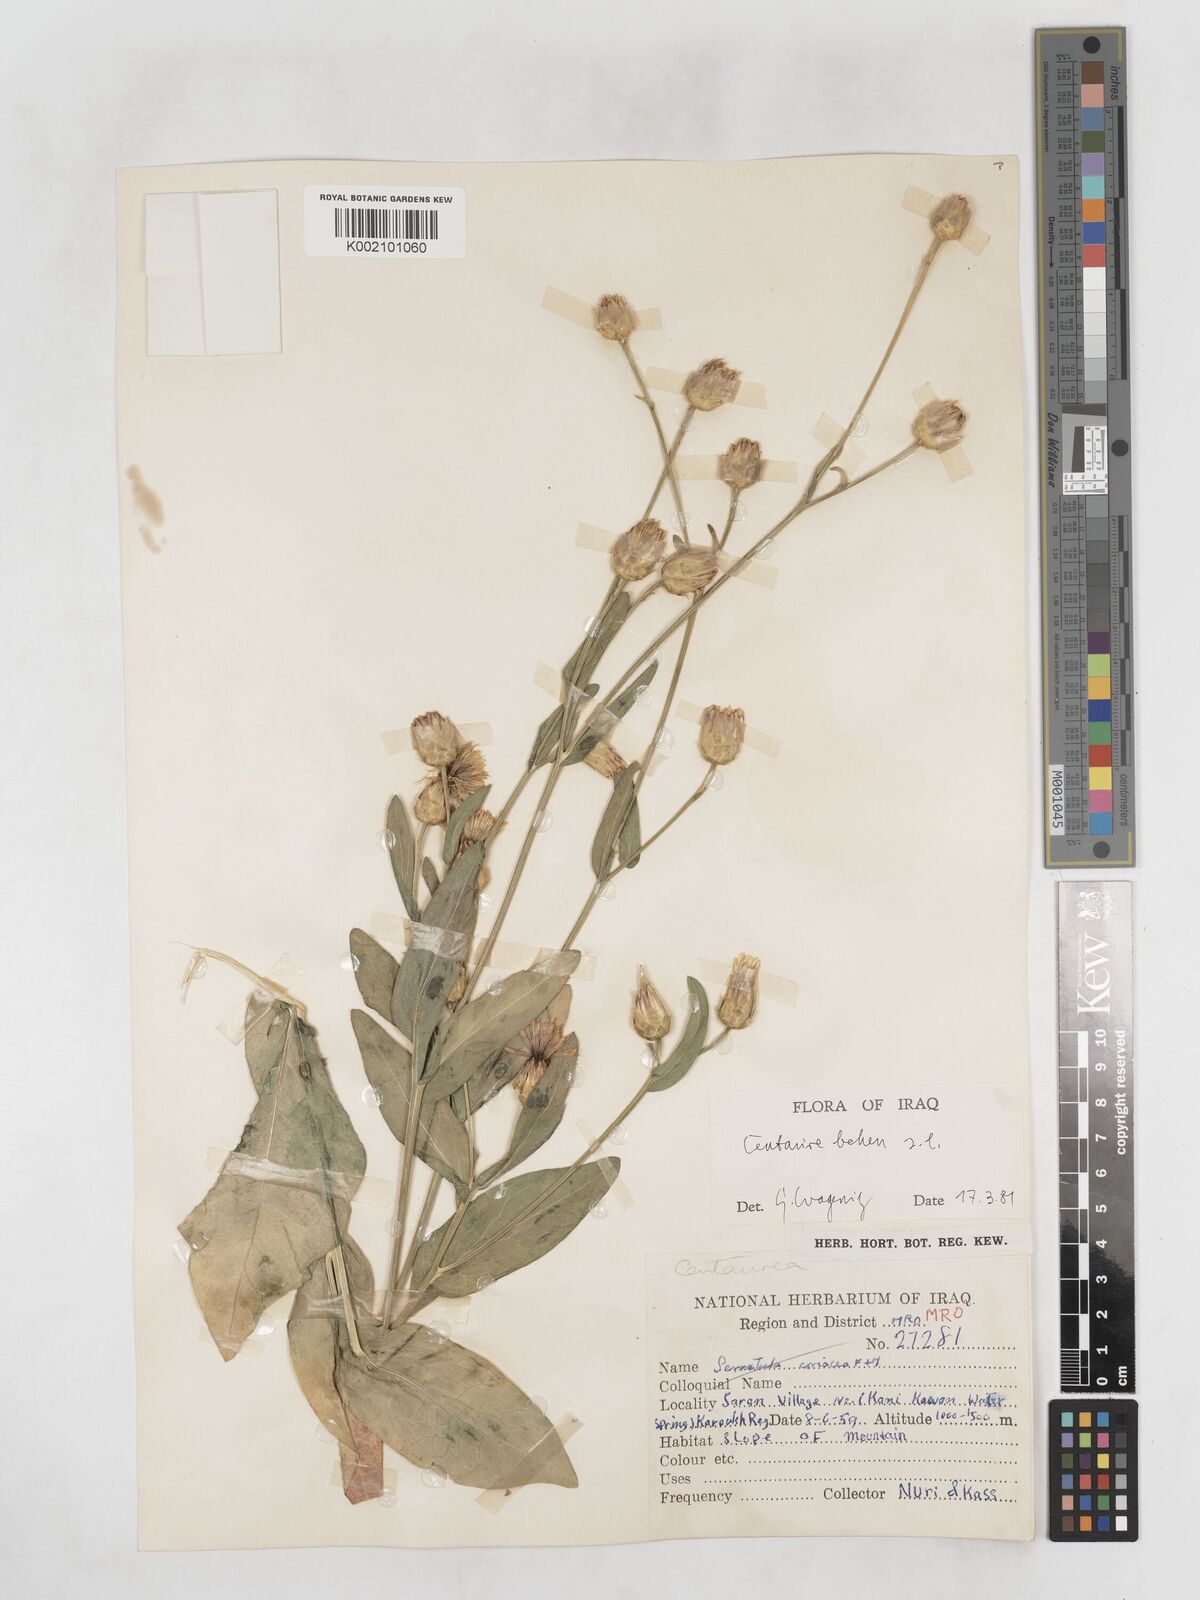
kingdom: Plantae
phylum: Tracheophyta
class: Magnoliopsida
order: Asterales
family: Asteraceae
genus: Centaurea
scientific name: Centaurea behen
